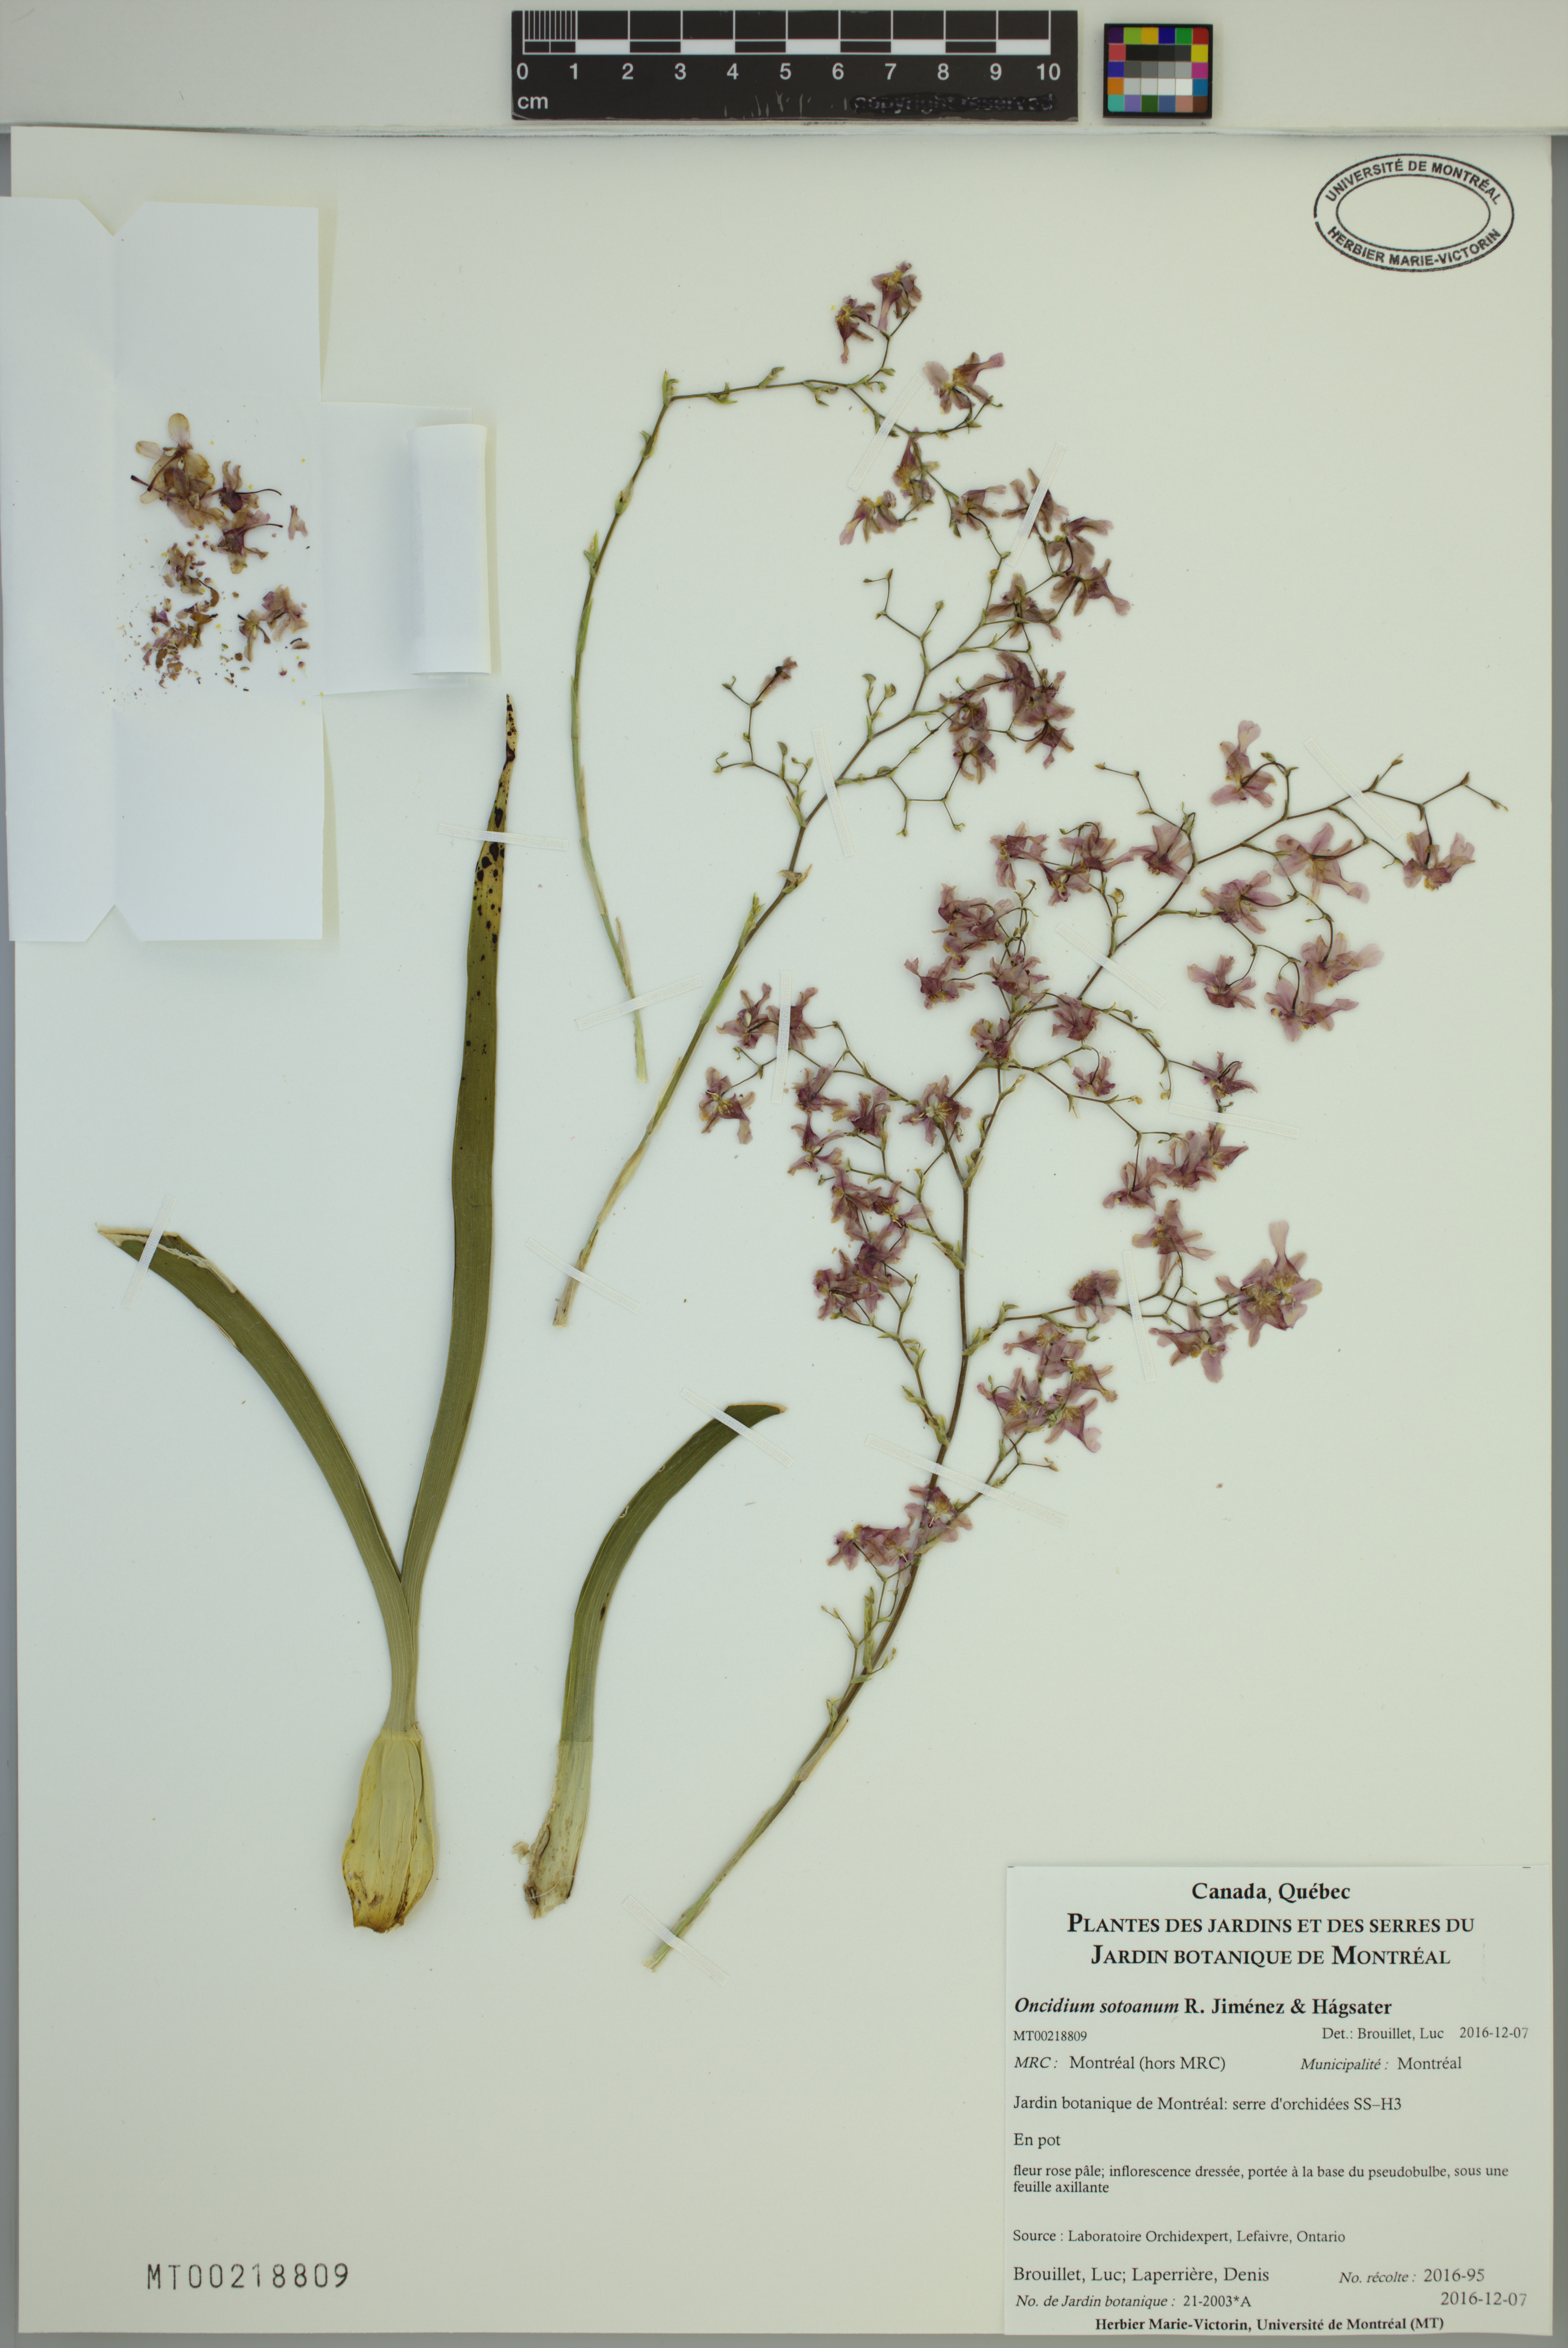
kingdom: Plantae
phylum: Tracheophyta
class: Liliopsida
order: Asparagales
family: Orchidaceae
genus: Oncidium
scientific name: Oncidium sotoanum
